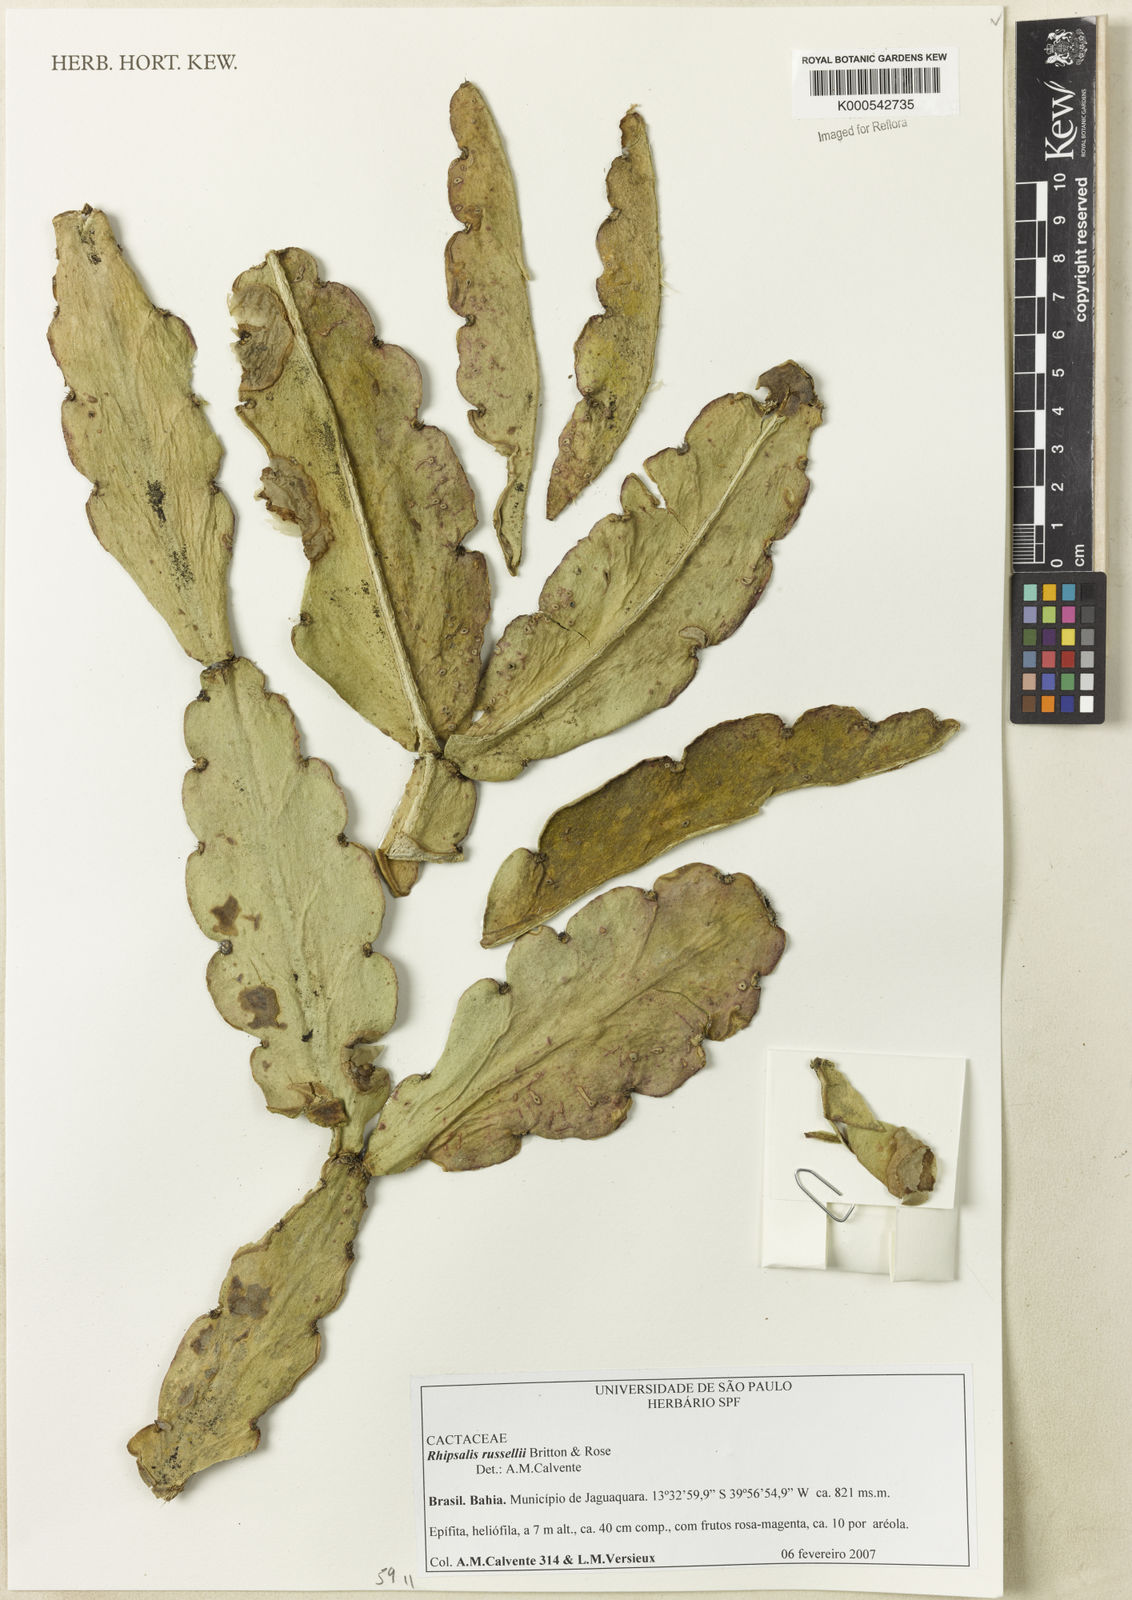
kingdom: Plantae
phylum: Tracheophyta
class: Magnoliopsida
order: Caryophyllales
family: Cactaceae
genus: Rhipsalis
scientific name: Rhipsalis russellii
